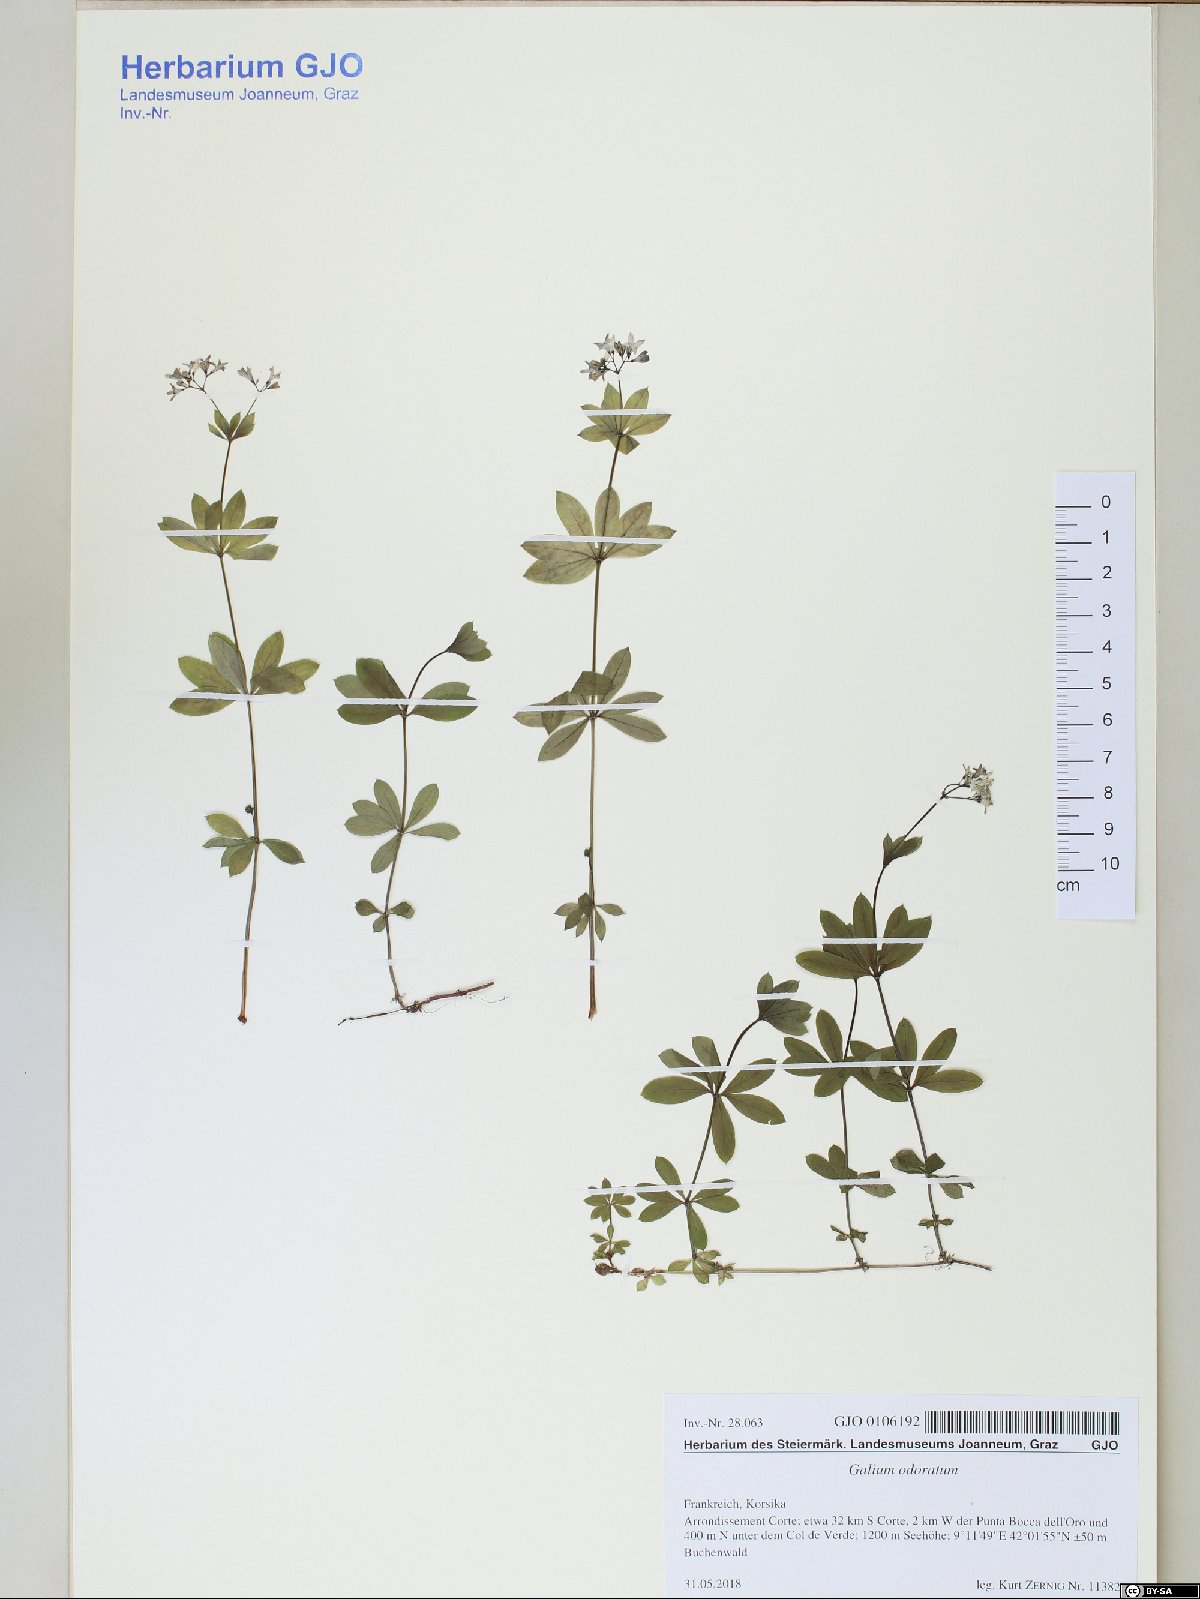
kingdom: Plantae
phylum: Tracheophyta
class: Magnoliopsida
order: Gentianales
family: Rubiaceae
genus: Galium
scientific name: Galium odoratum
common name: Sweet woodruff
